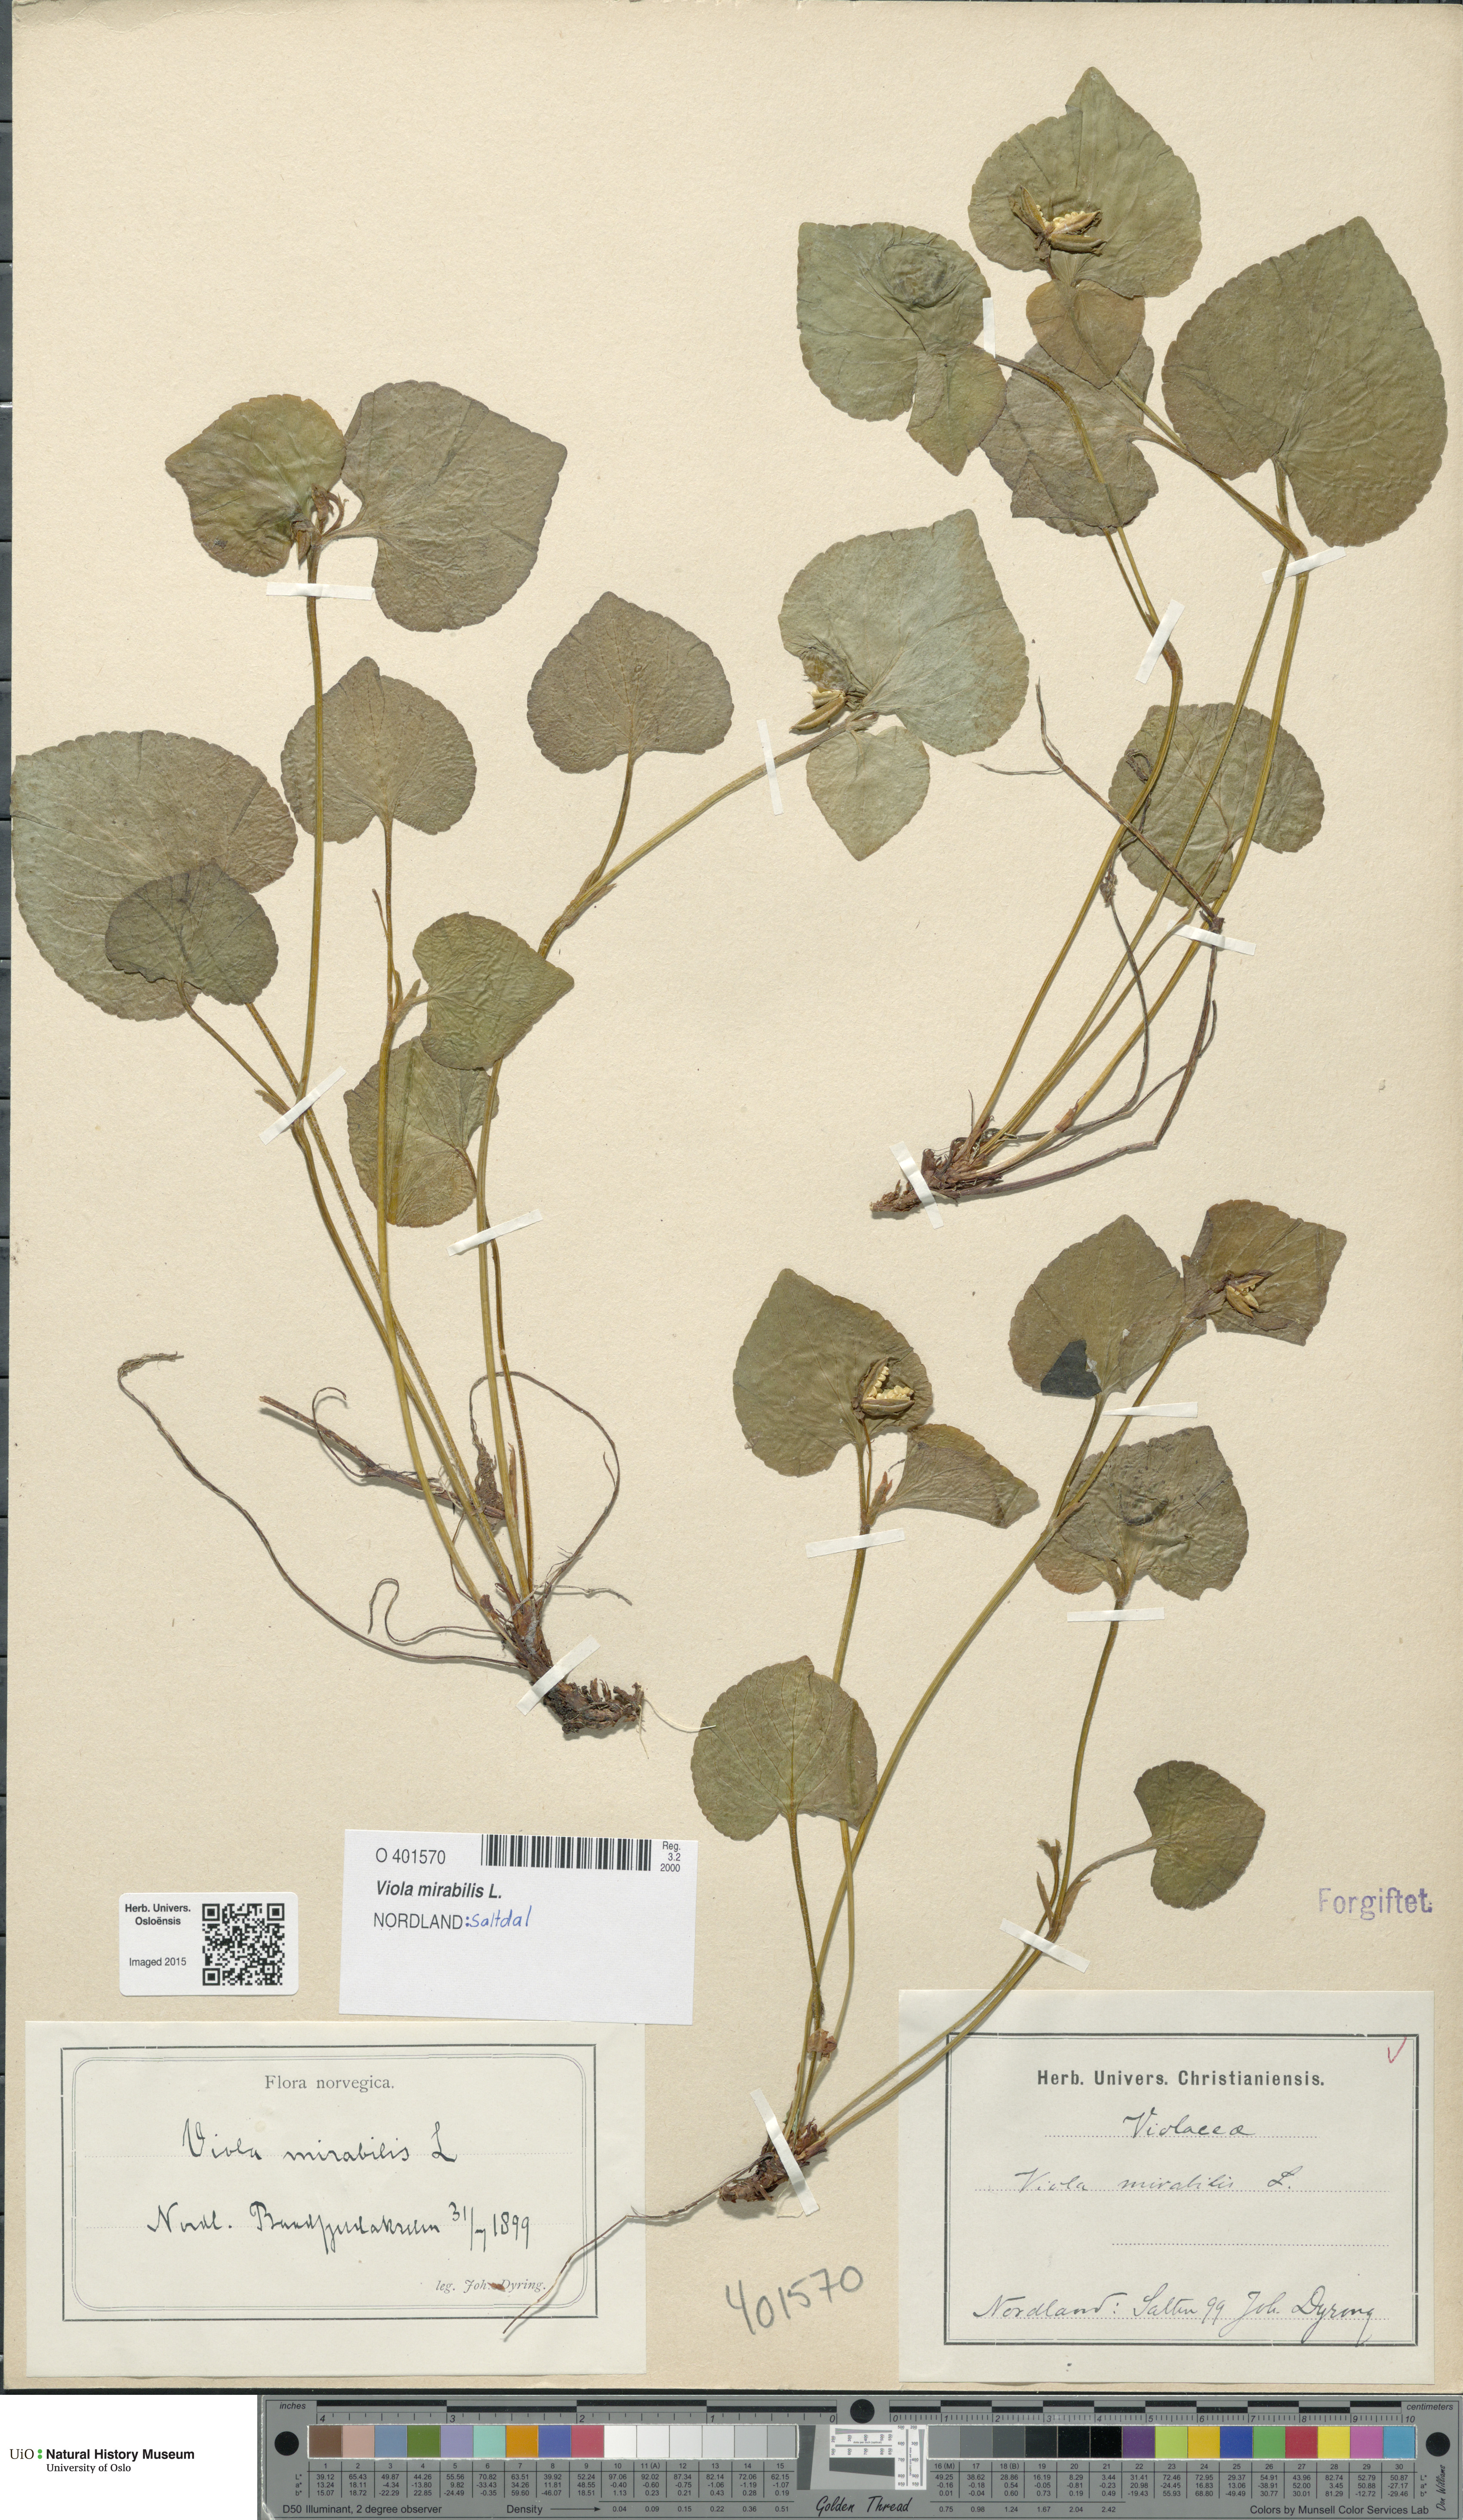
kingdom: Plantae
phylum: Tracheophyta
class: Magnoliopsida
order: Malpighiales
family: Violaceae
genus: Viola
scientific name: Viola mirabilis
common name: Wonder violet
